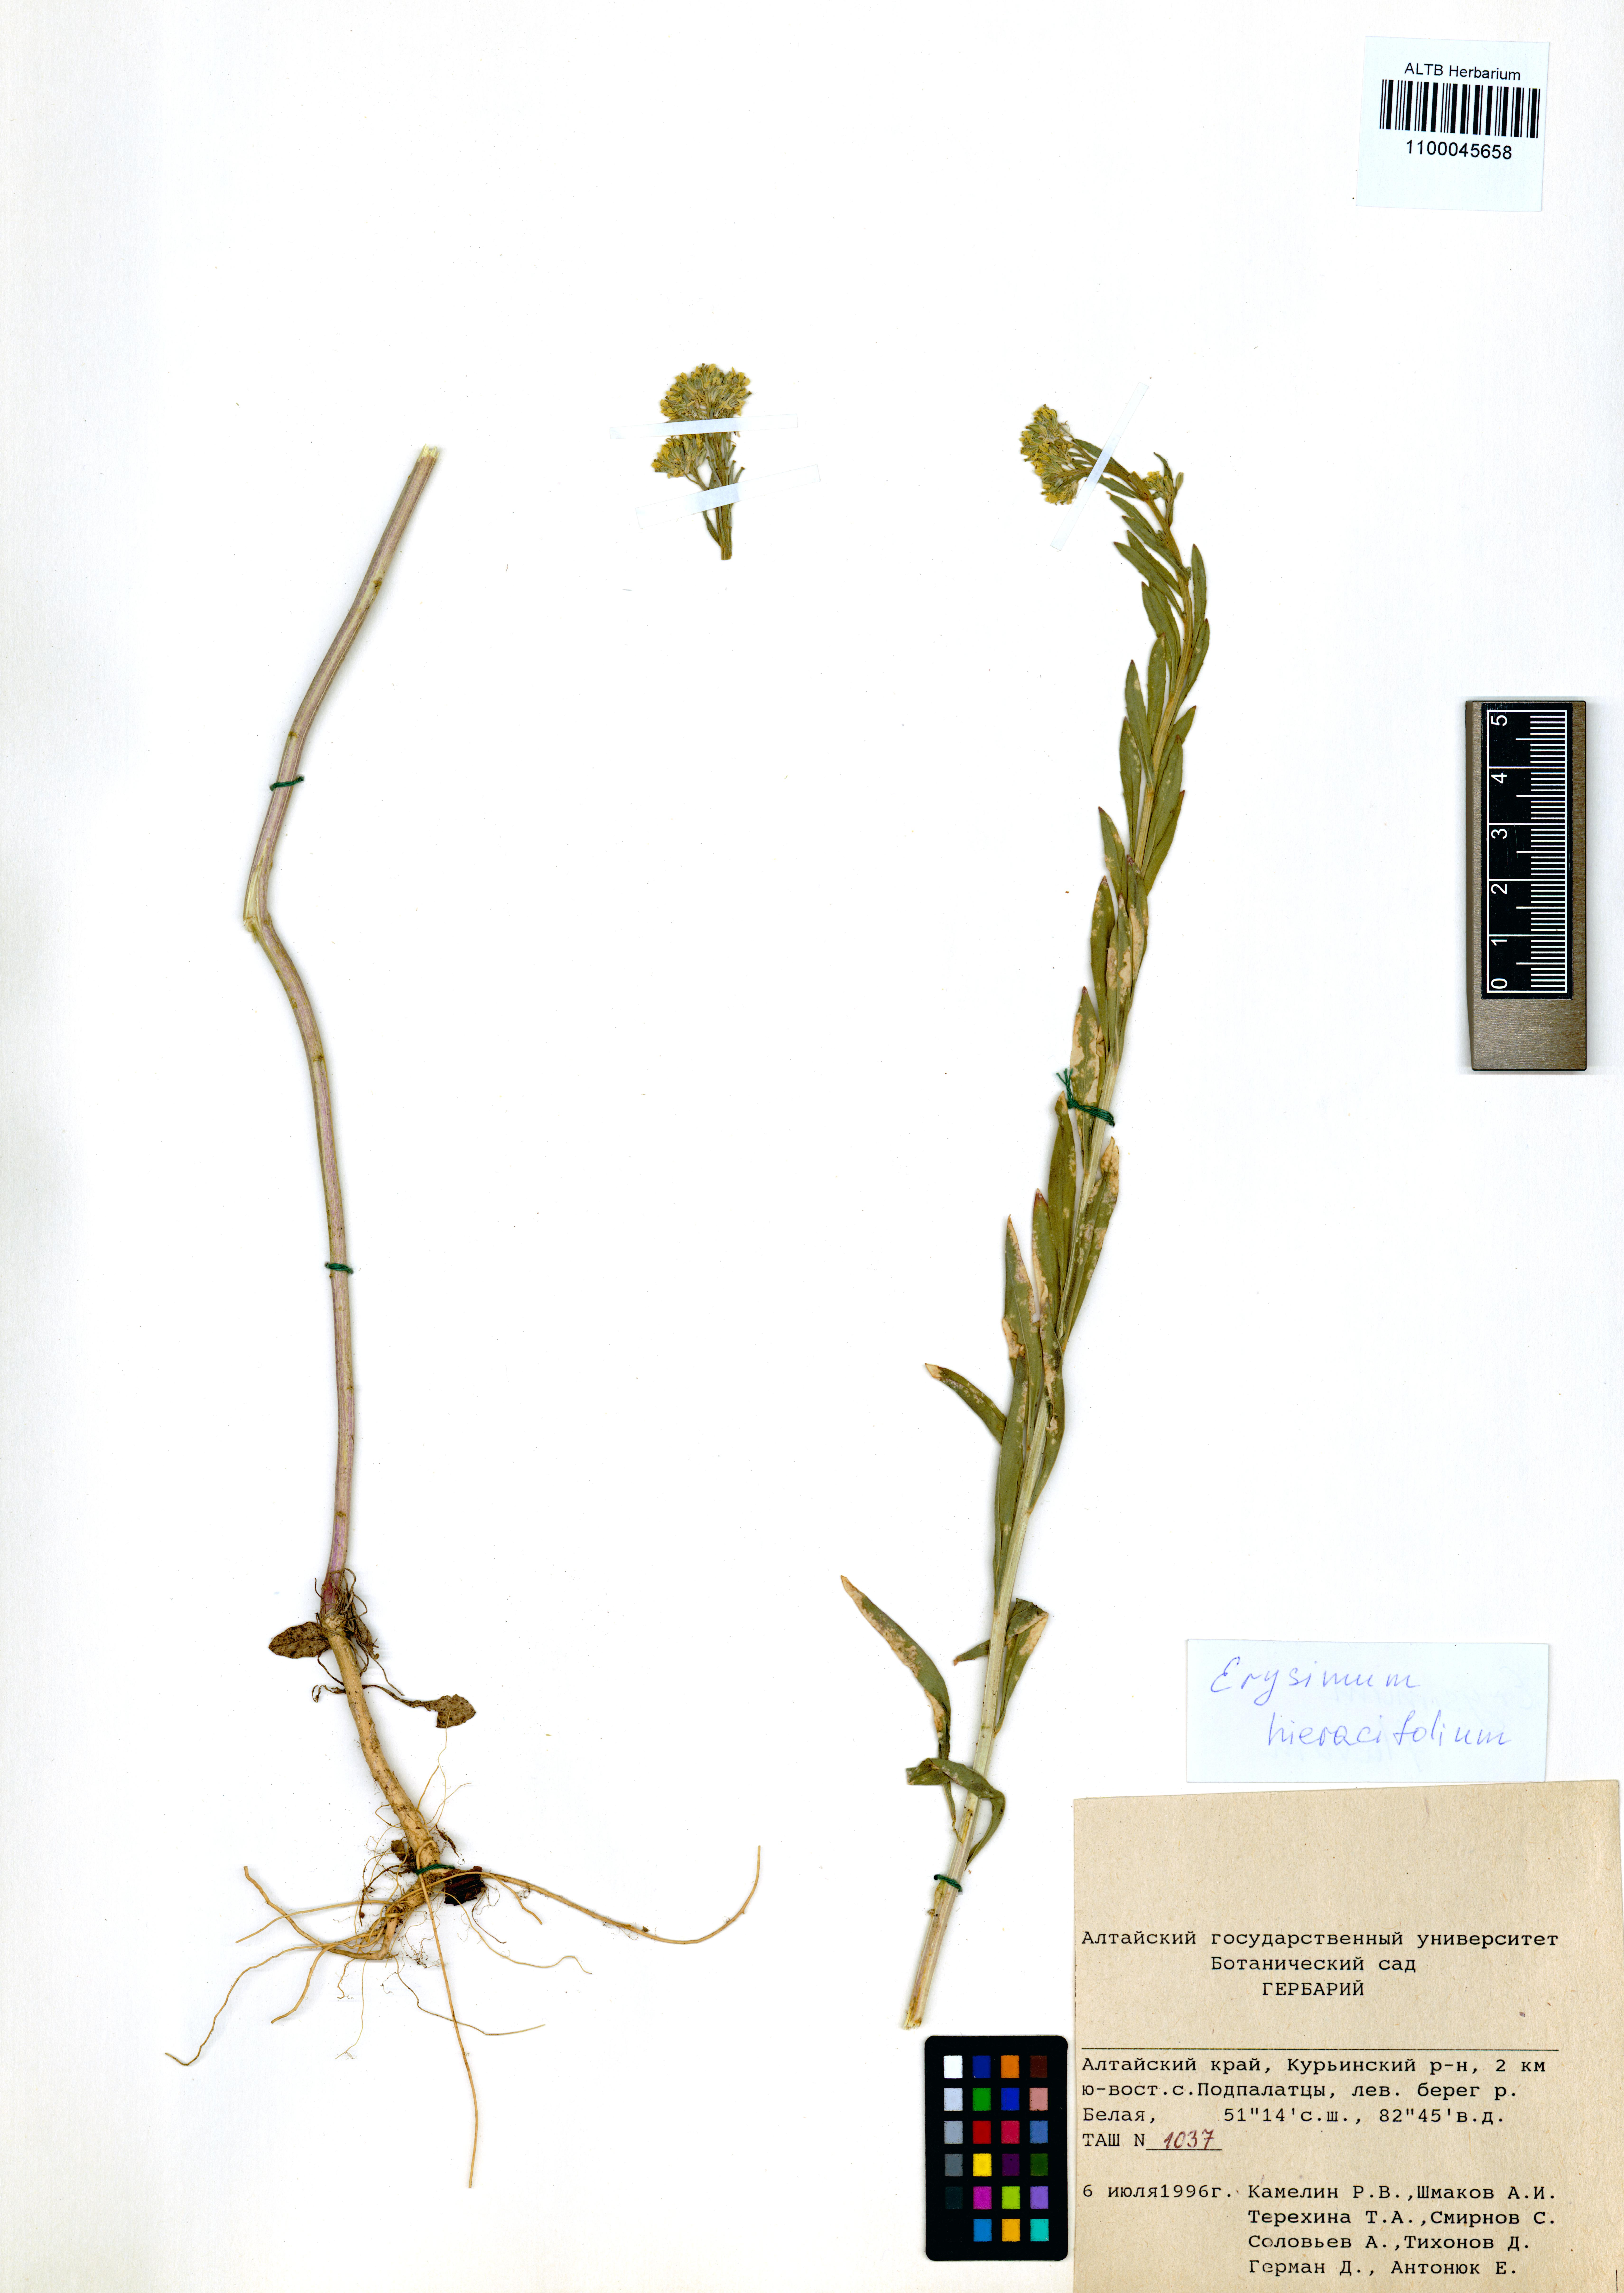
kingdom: Plantae
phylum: Tracheophyta
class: Magnoliopsida
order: Brassicales
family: Brassicaceae
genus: Erysimum
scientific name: Erysimum hieraciifolium
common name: European wallflower
